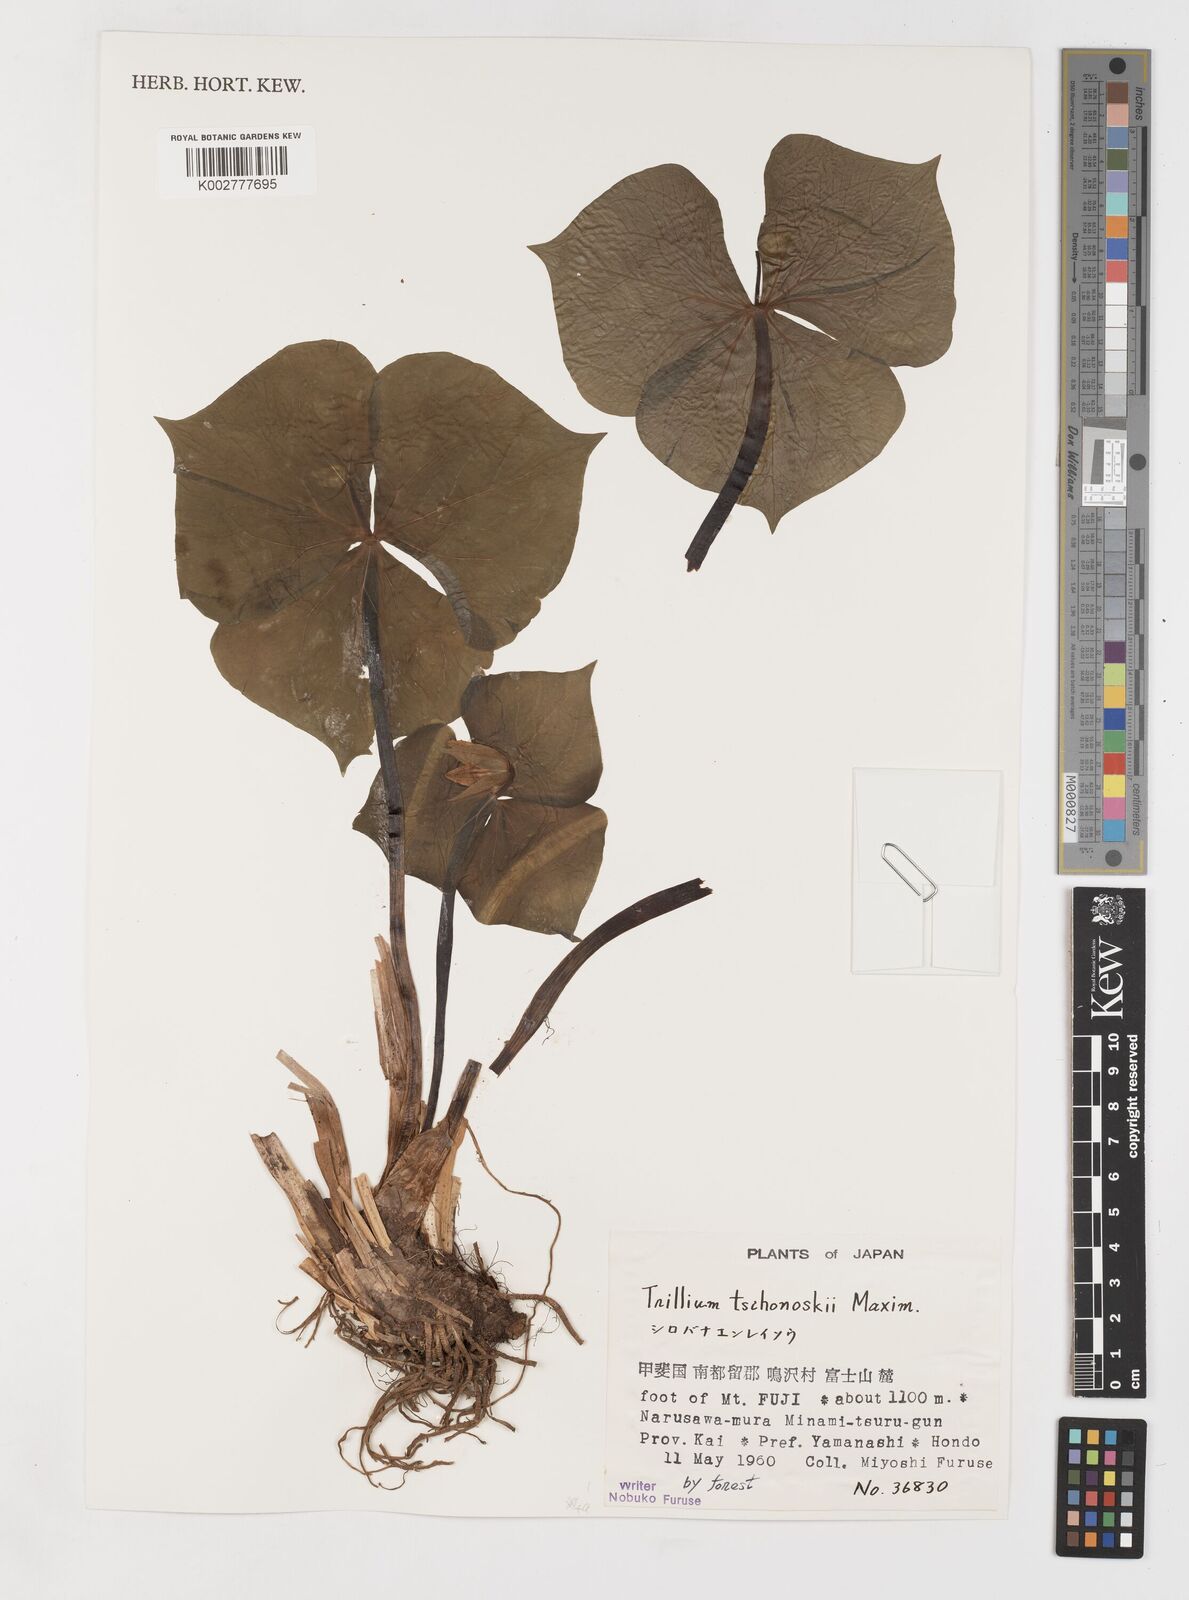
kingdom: Plantae
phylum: Tracheophyta
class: Liliopsida
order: Liliales
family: Melanthiaceae
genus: Trillium
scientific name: Trillium tschonoskii
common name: A pearl on head
